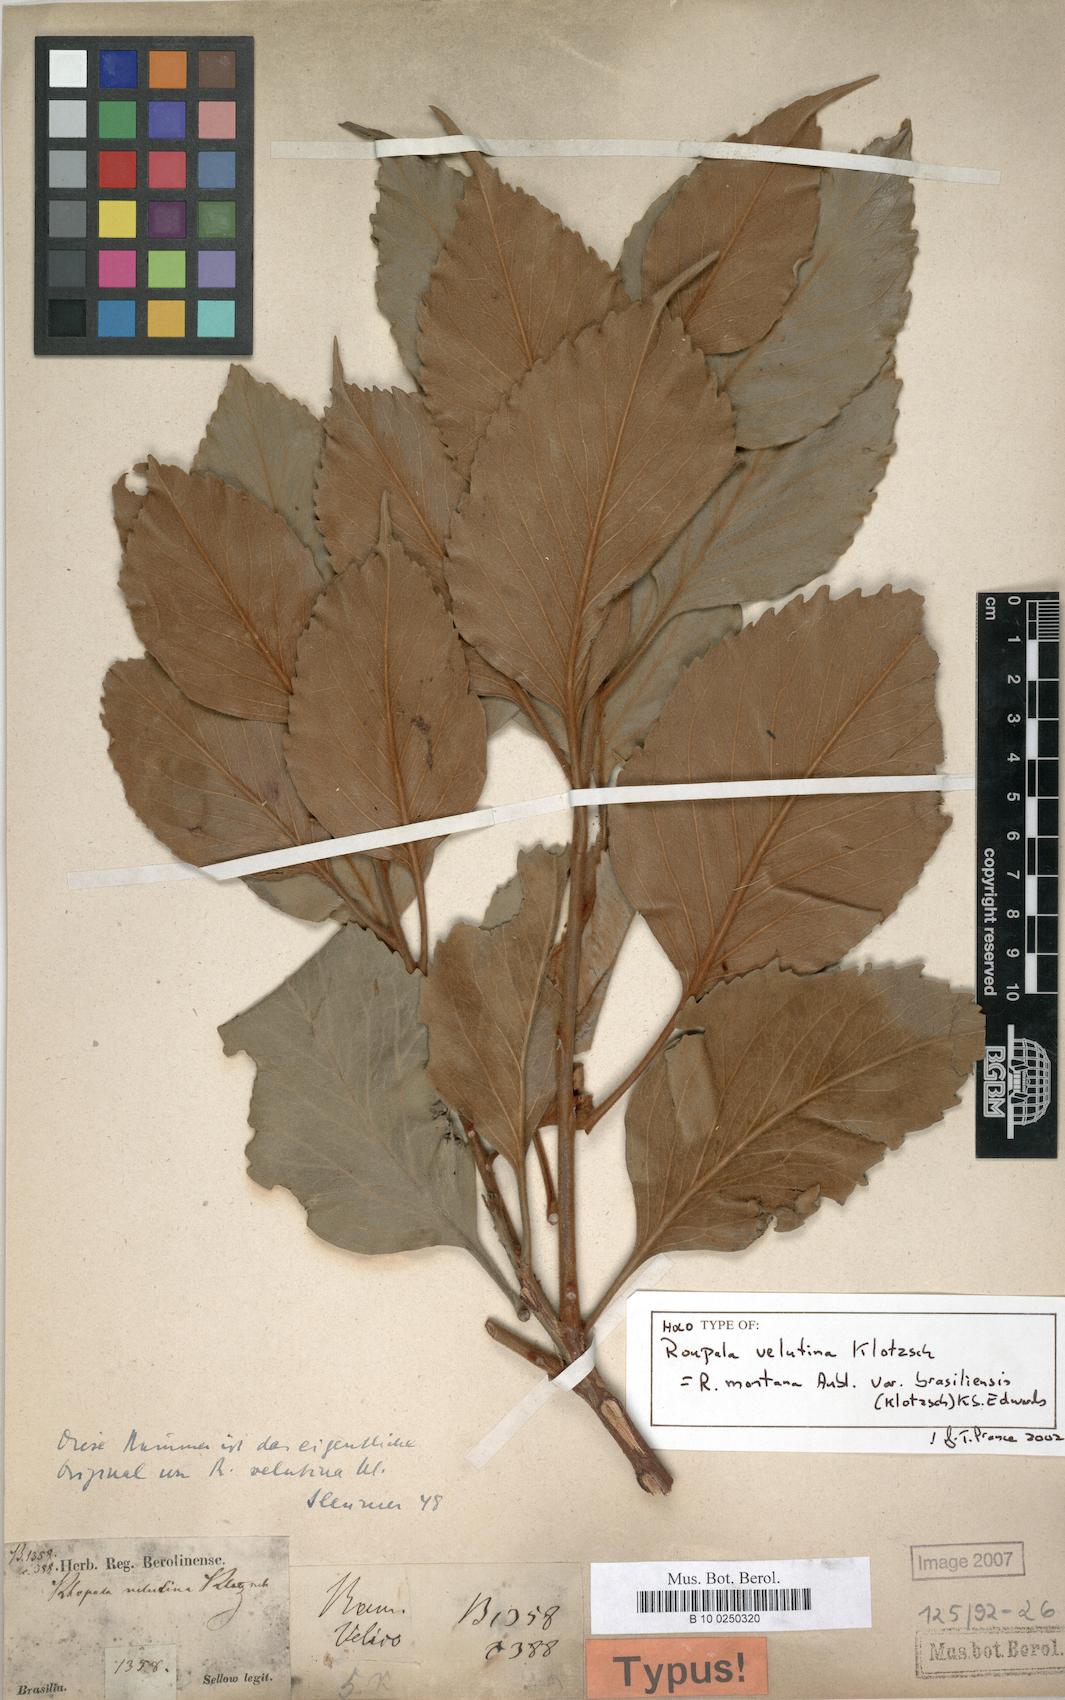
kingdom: Plantae
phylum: Tracheophyta
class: Magnoliopsida
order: Proteales
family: Proteaceae
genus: Roupala
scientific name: Roupala montana
